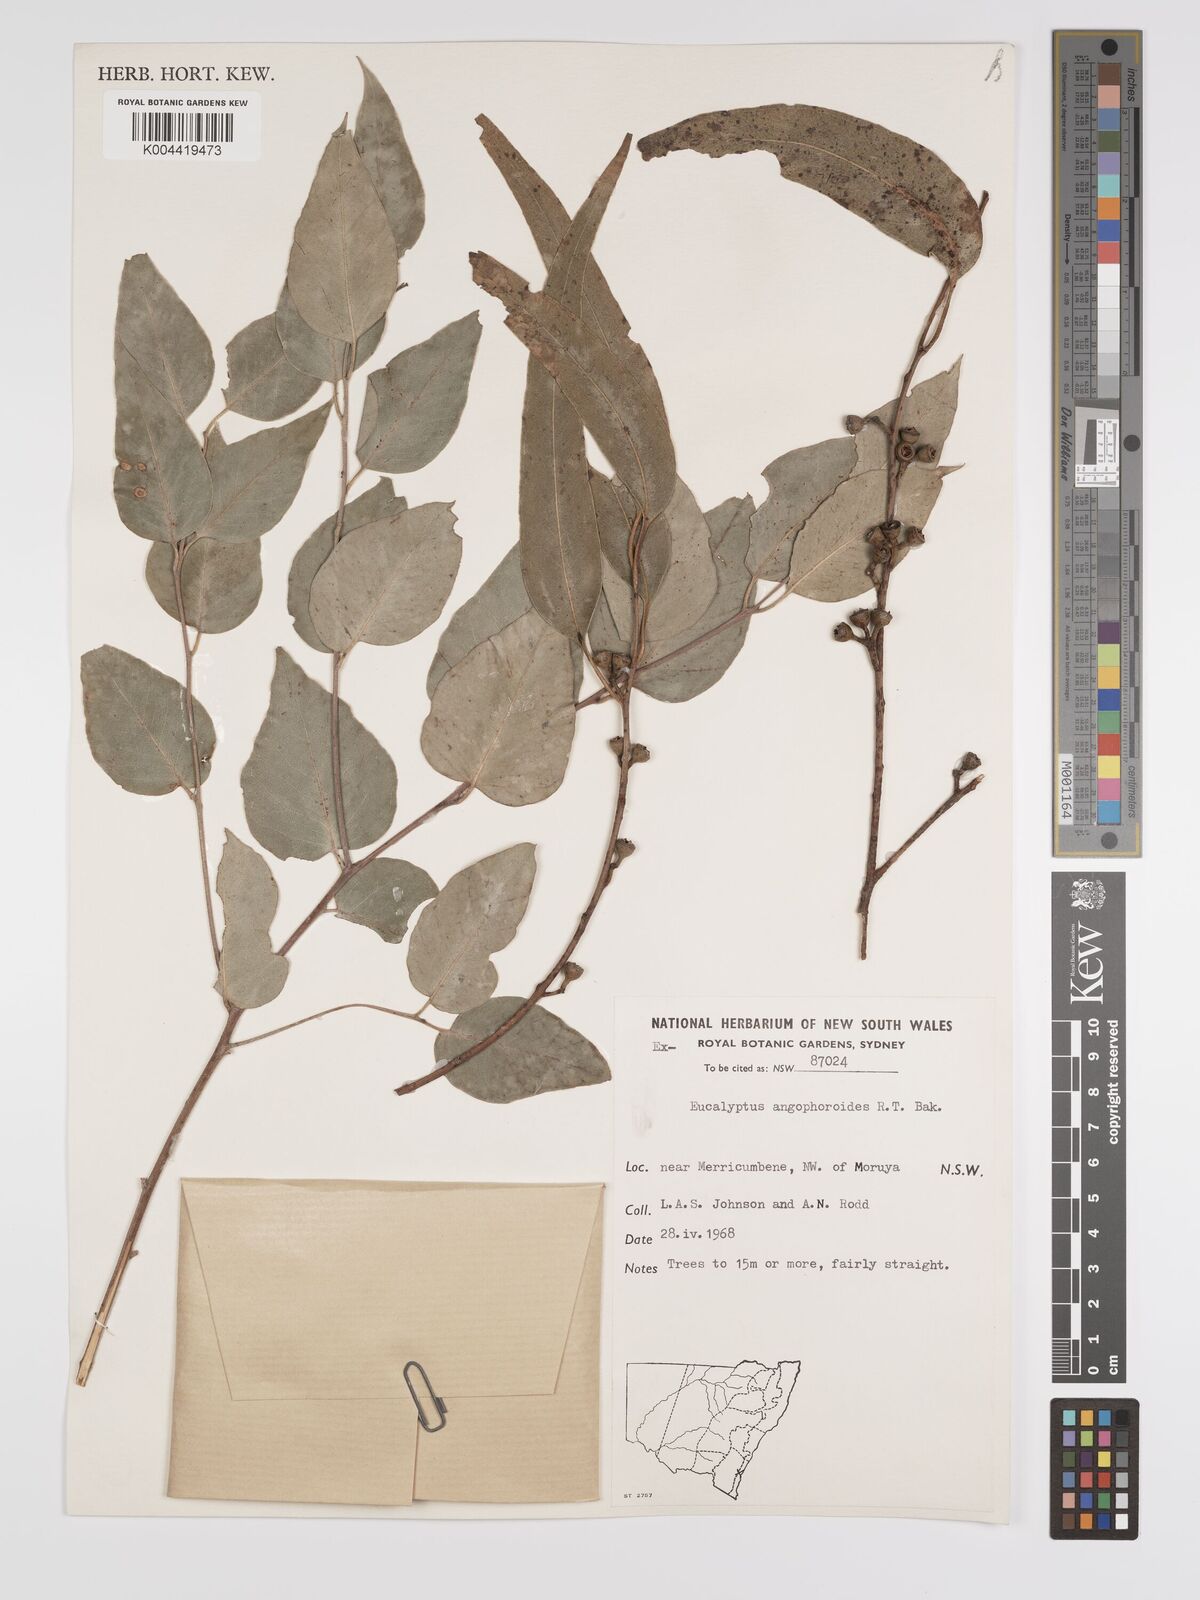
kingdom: Plantae
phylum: Tracheophyta
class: Magnoliopsida
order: Myrtales
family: Myrtaceae
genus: Eucalyptus
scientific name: Eucalyptus angophoroides
